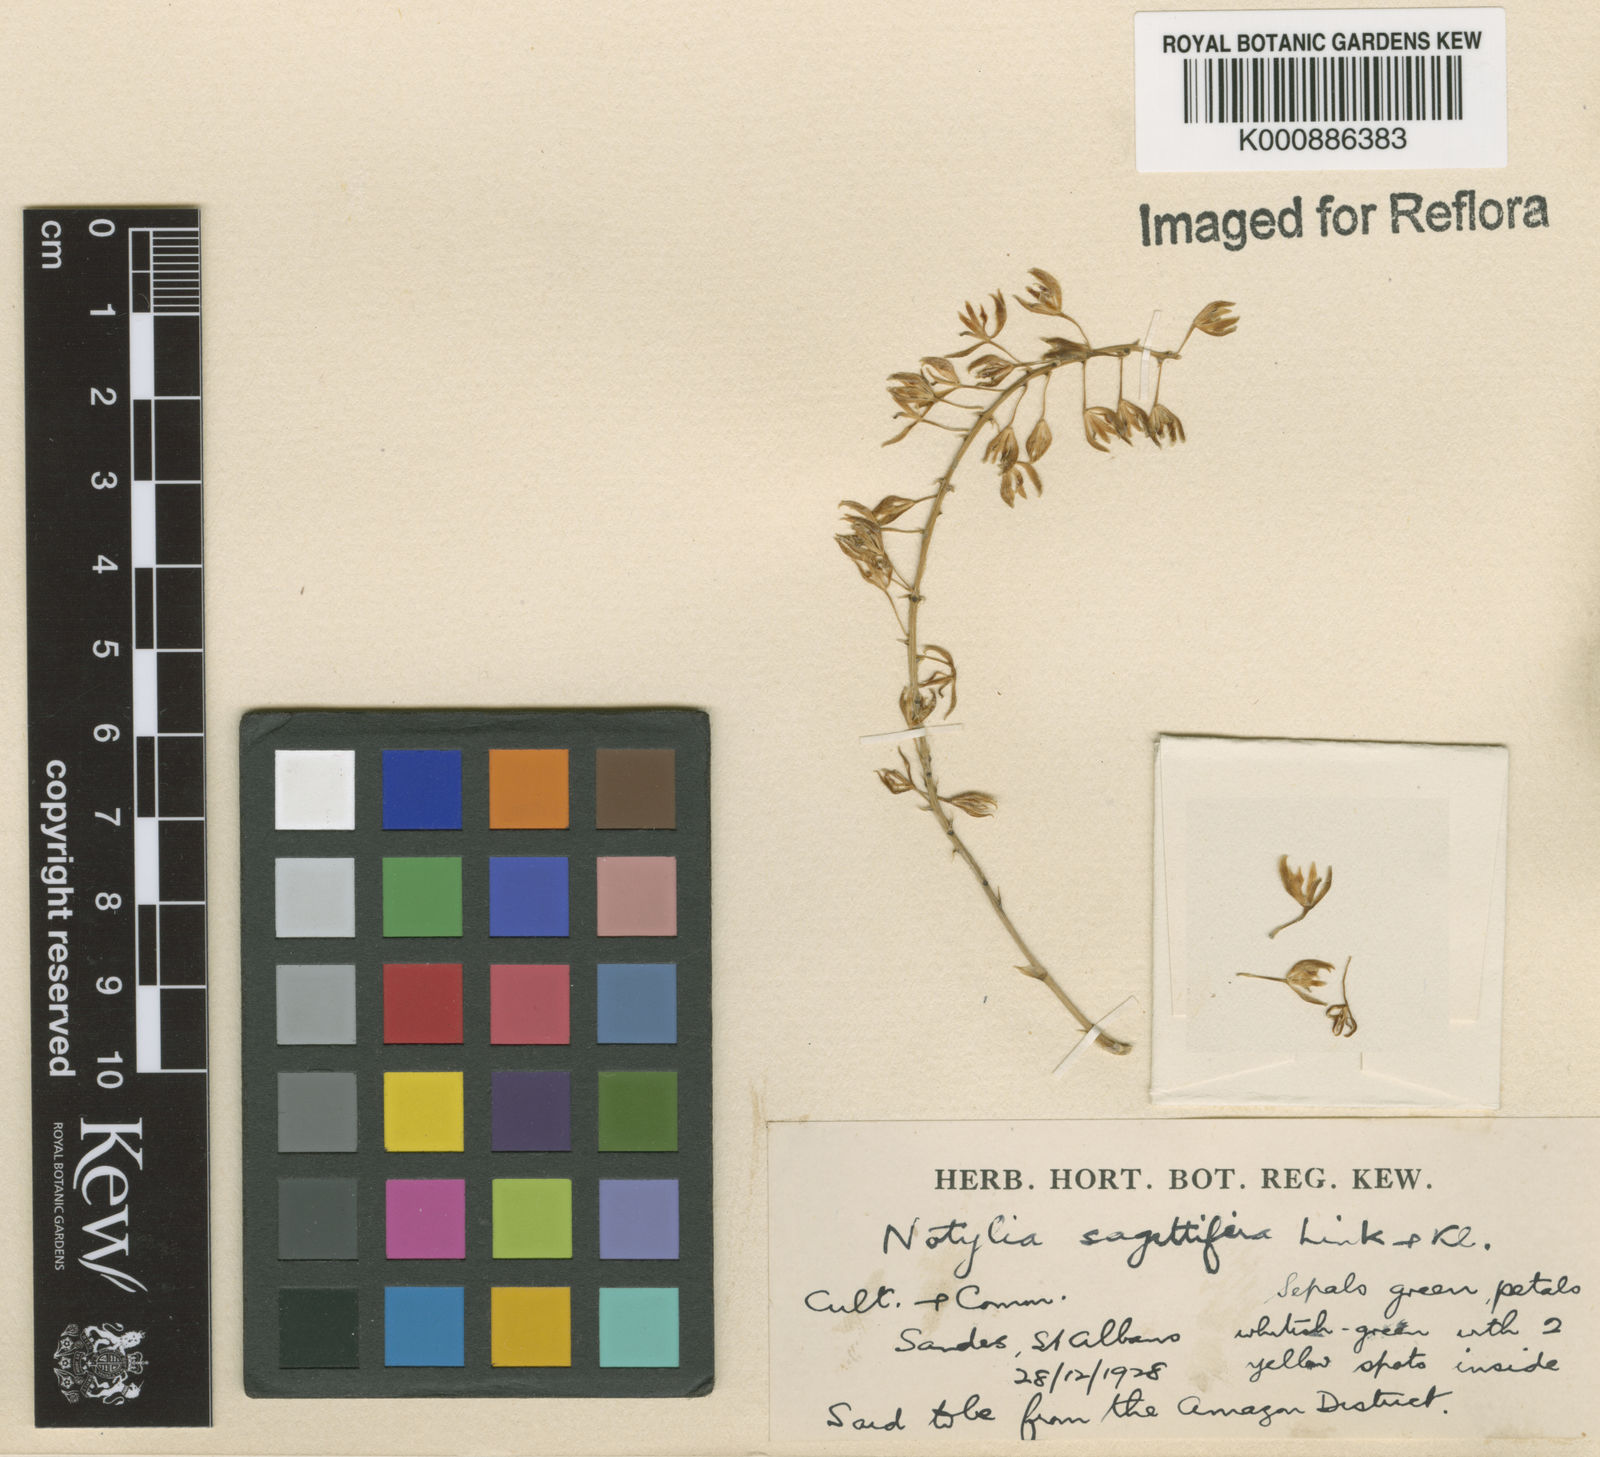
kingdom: Plantae
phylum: Tracheophyta
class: Liliopsida
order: Asparagales
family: Orchidaceae
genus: Notylia
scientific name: Notylia sagittifera
